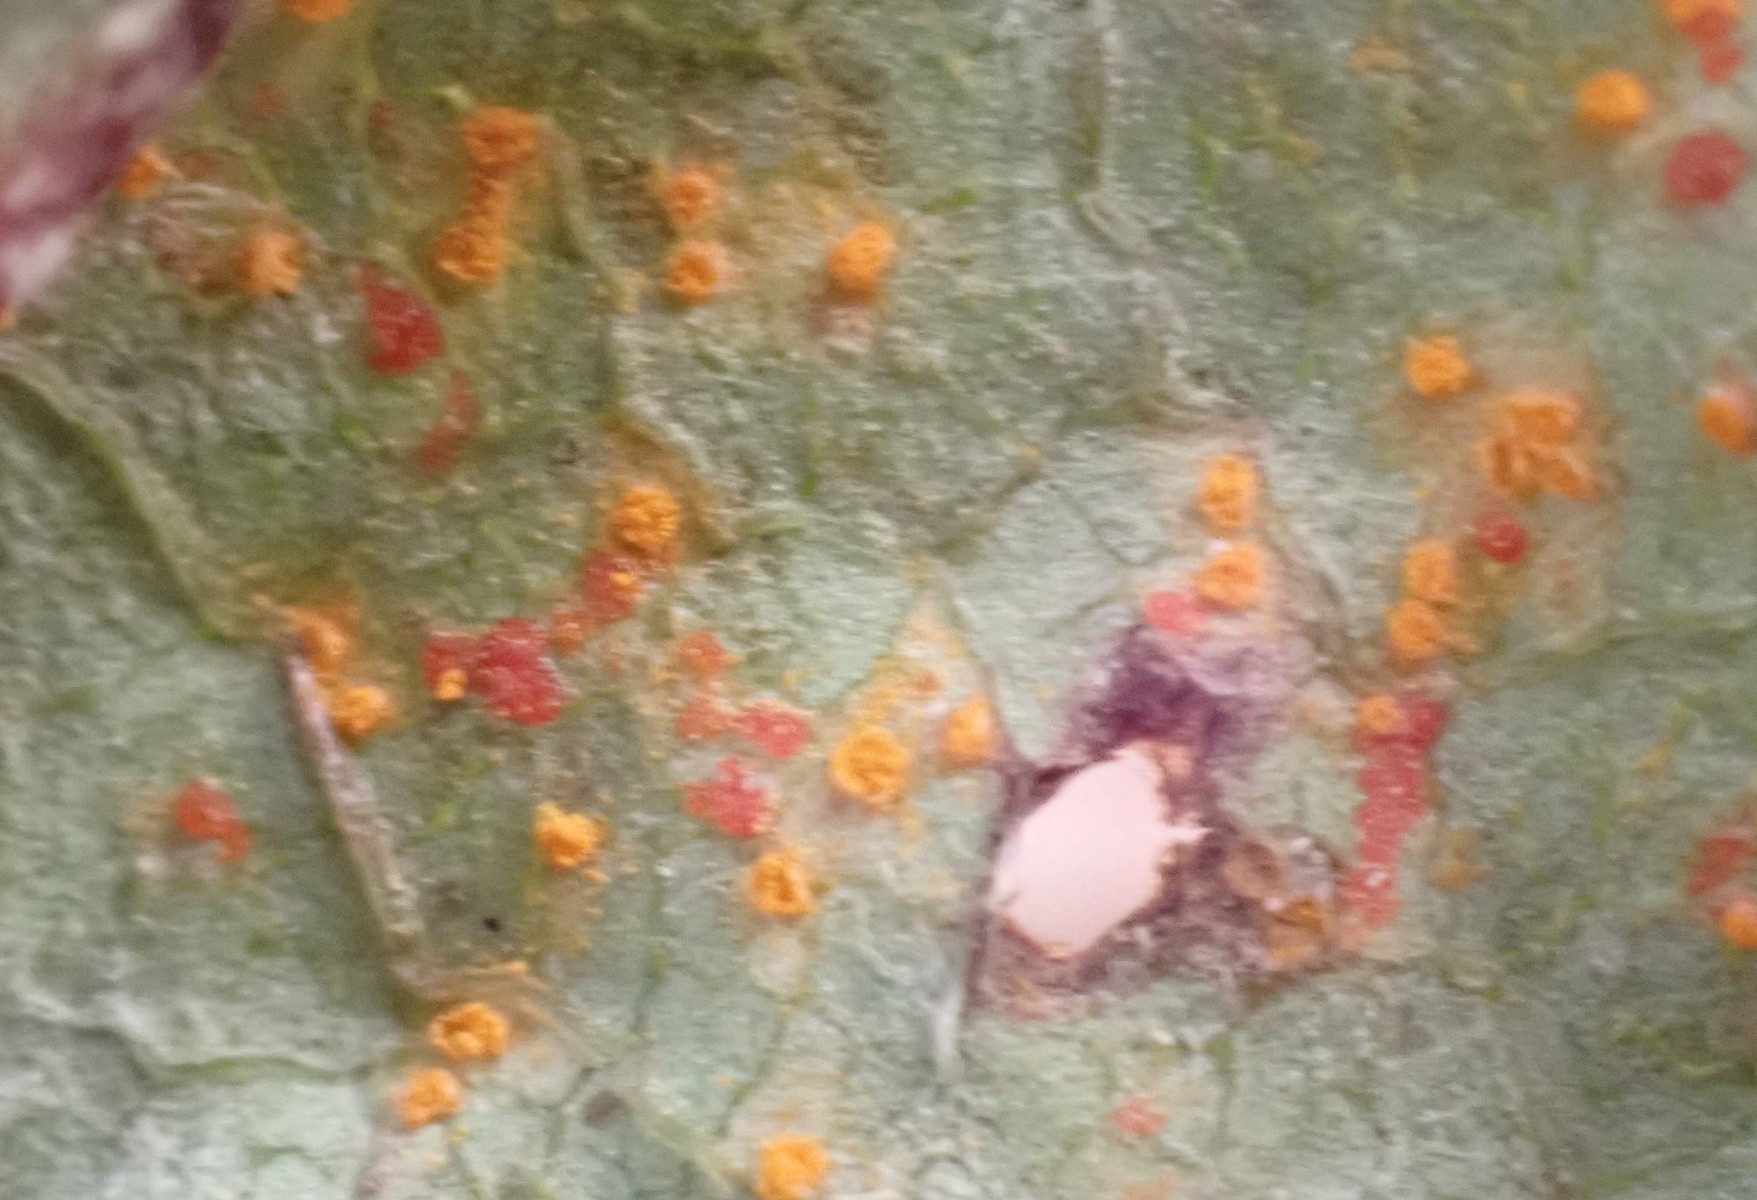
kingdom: Fungi
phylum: Basidiomycota
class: Pucciniomycetes
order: Pucciniales
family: Coleosporiaceae
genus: Coleosporium
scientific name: Coleosporium tussilaginis
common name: almindelig fyrrenålerust
